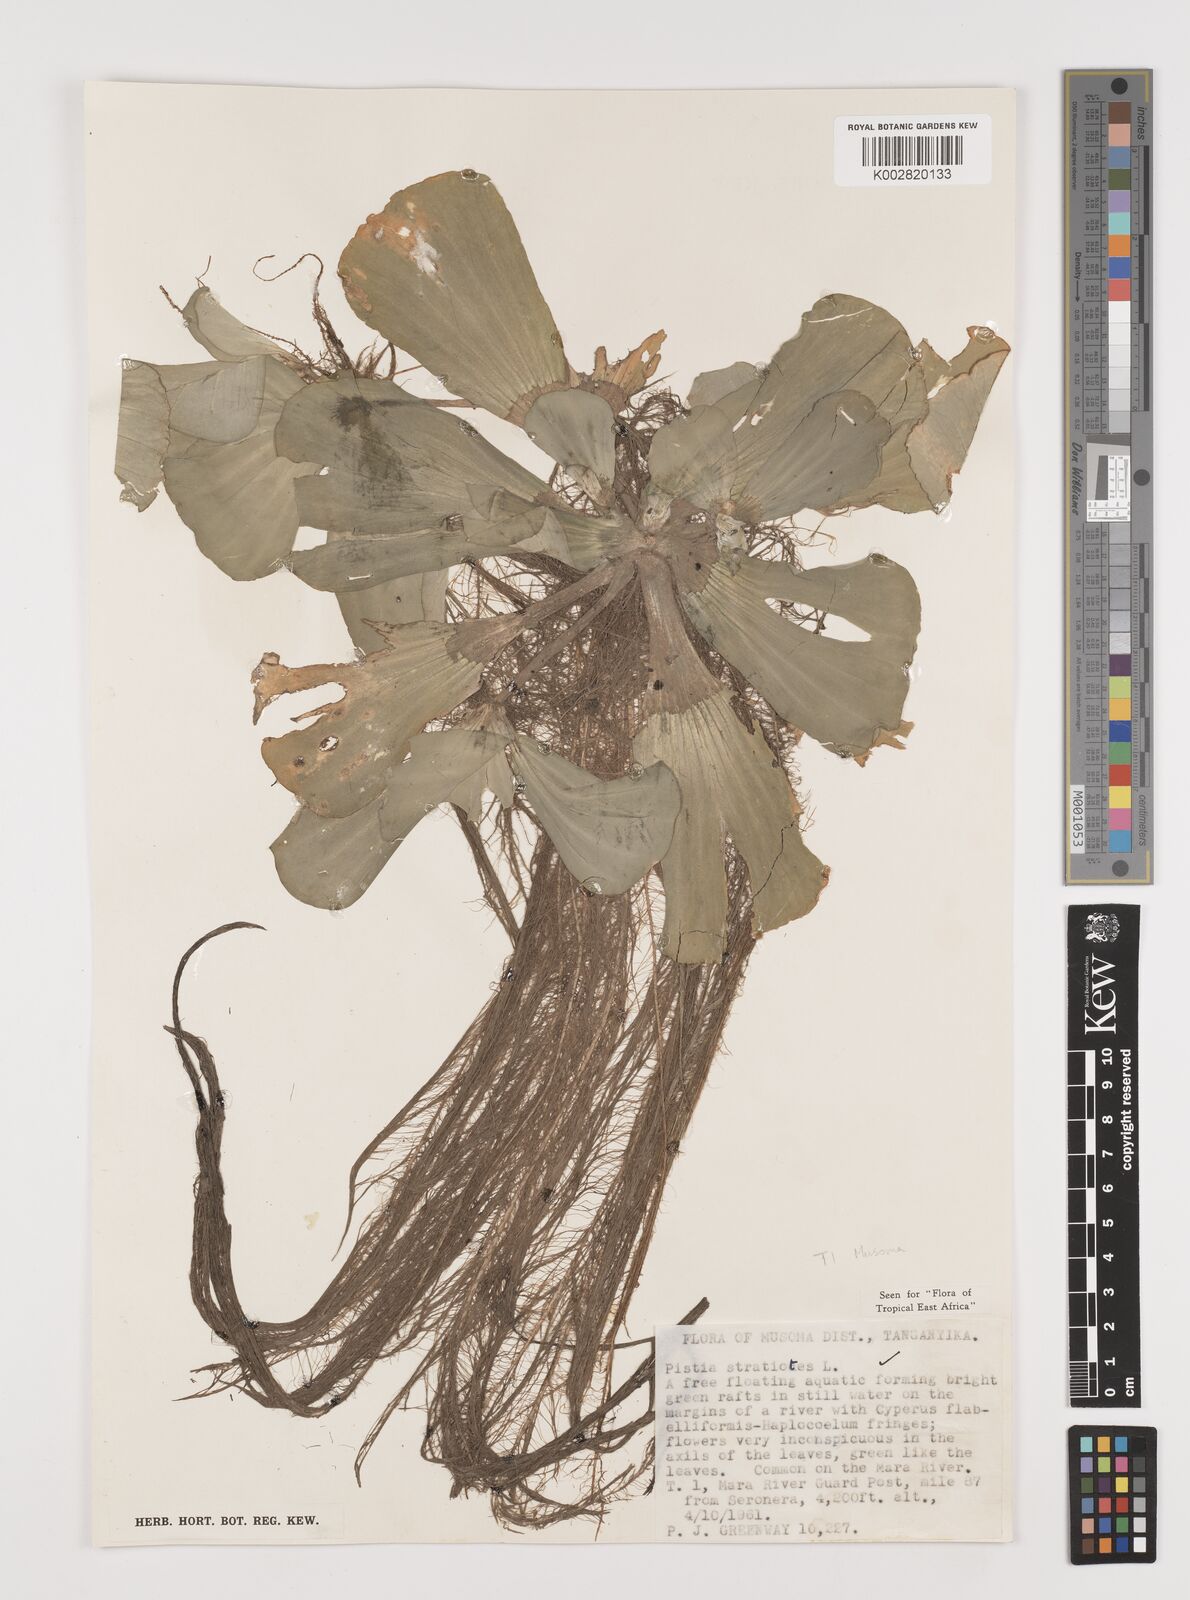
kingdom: Plantae
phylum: Tracheophyta
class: Liliopsida
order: Alismatales
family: Araceae
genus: Pistia
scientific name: Pistia stratiotes
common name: Water lettuce
